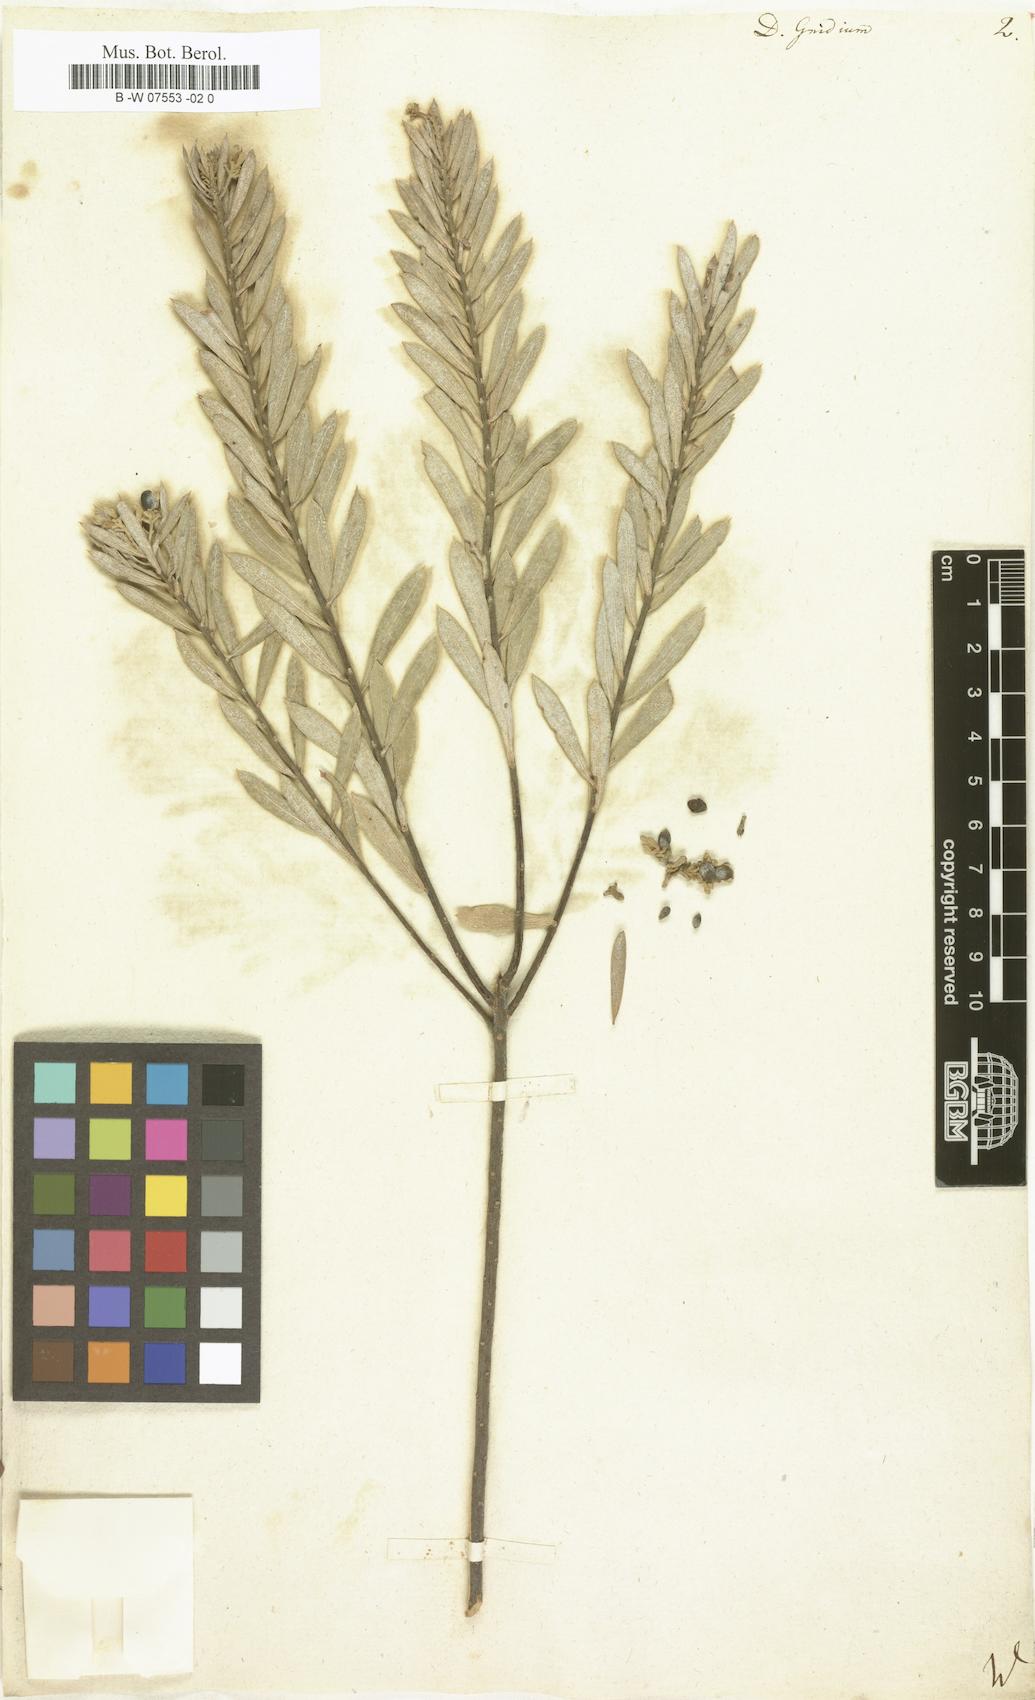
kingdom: Plantae
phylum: Tracheophyta
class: Magnoliopsida
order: Malvales
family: Thymelaeaceae
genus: Daphne
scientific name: Daphne gnidium
